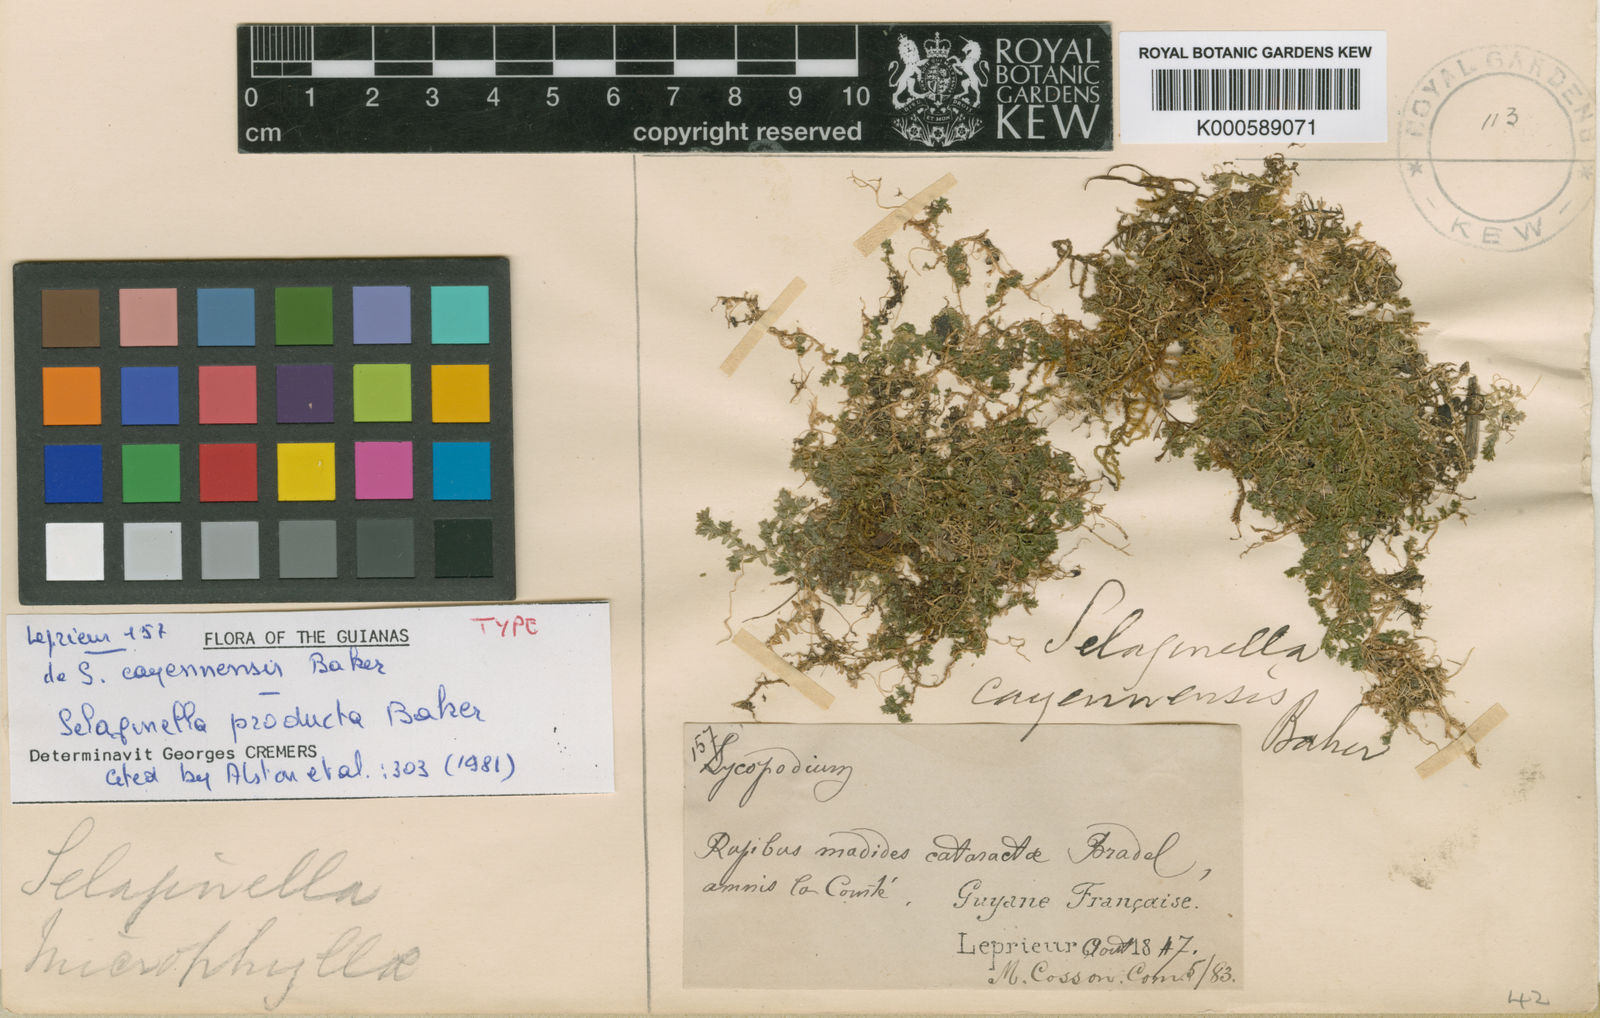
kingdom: Plantae
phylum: Tracheophyta
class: Lycopodiopsida
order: Selaginellales
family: Selaginellaceae
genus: Selaginella
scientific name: Selaginella producta
